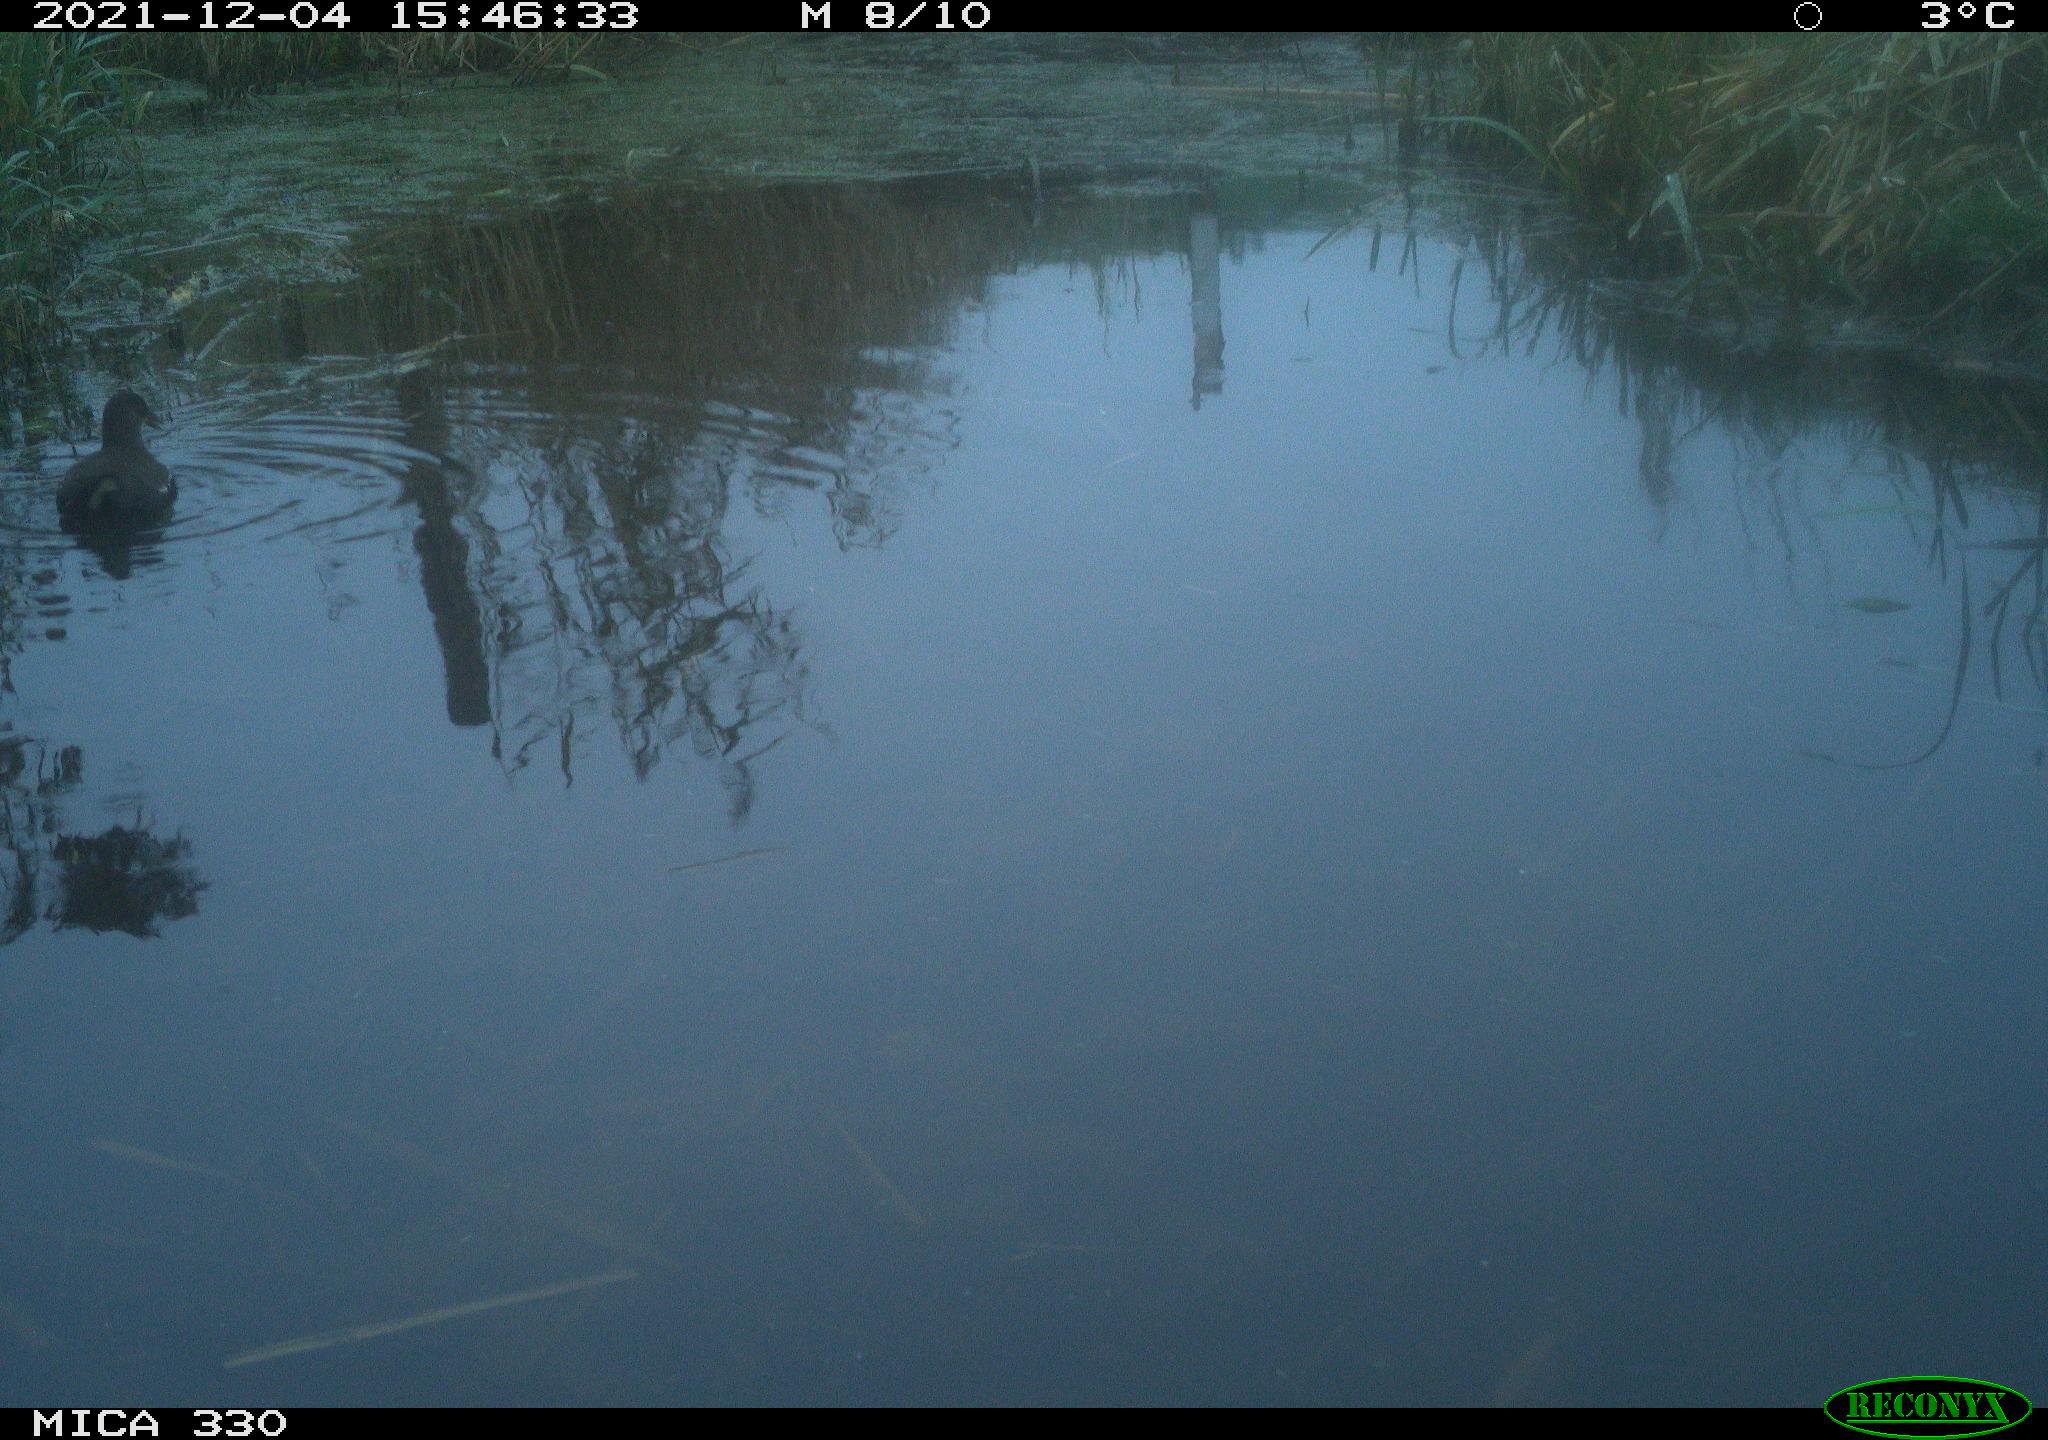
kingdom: Animalia
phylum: Chordata
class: Aves
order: Gruiformes
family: Rallidae
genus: Gallinula
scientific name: Gallinula chloropus
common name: Common moorhen
